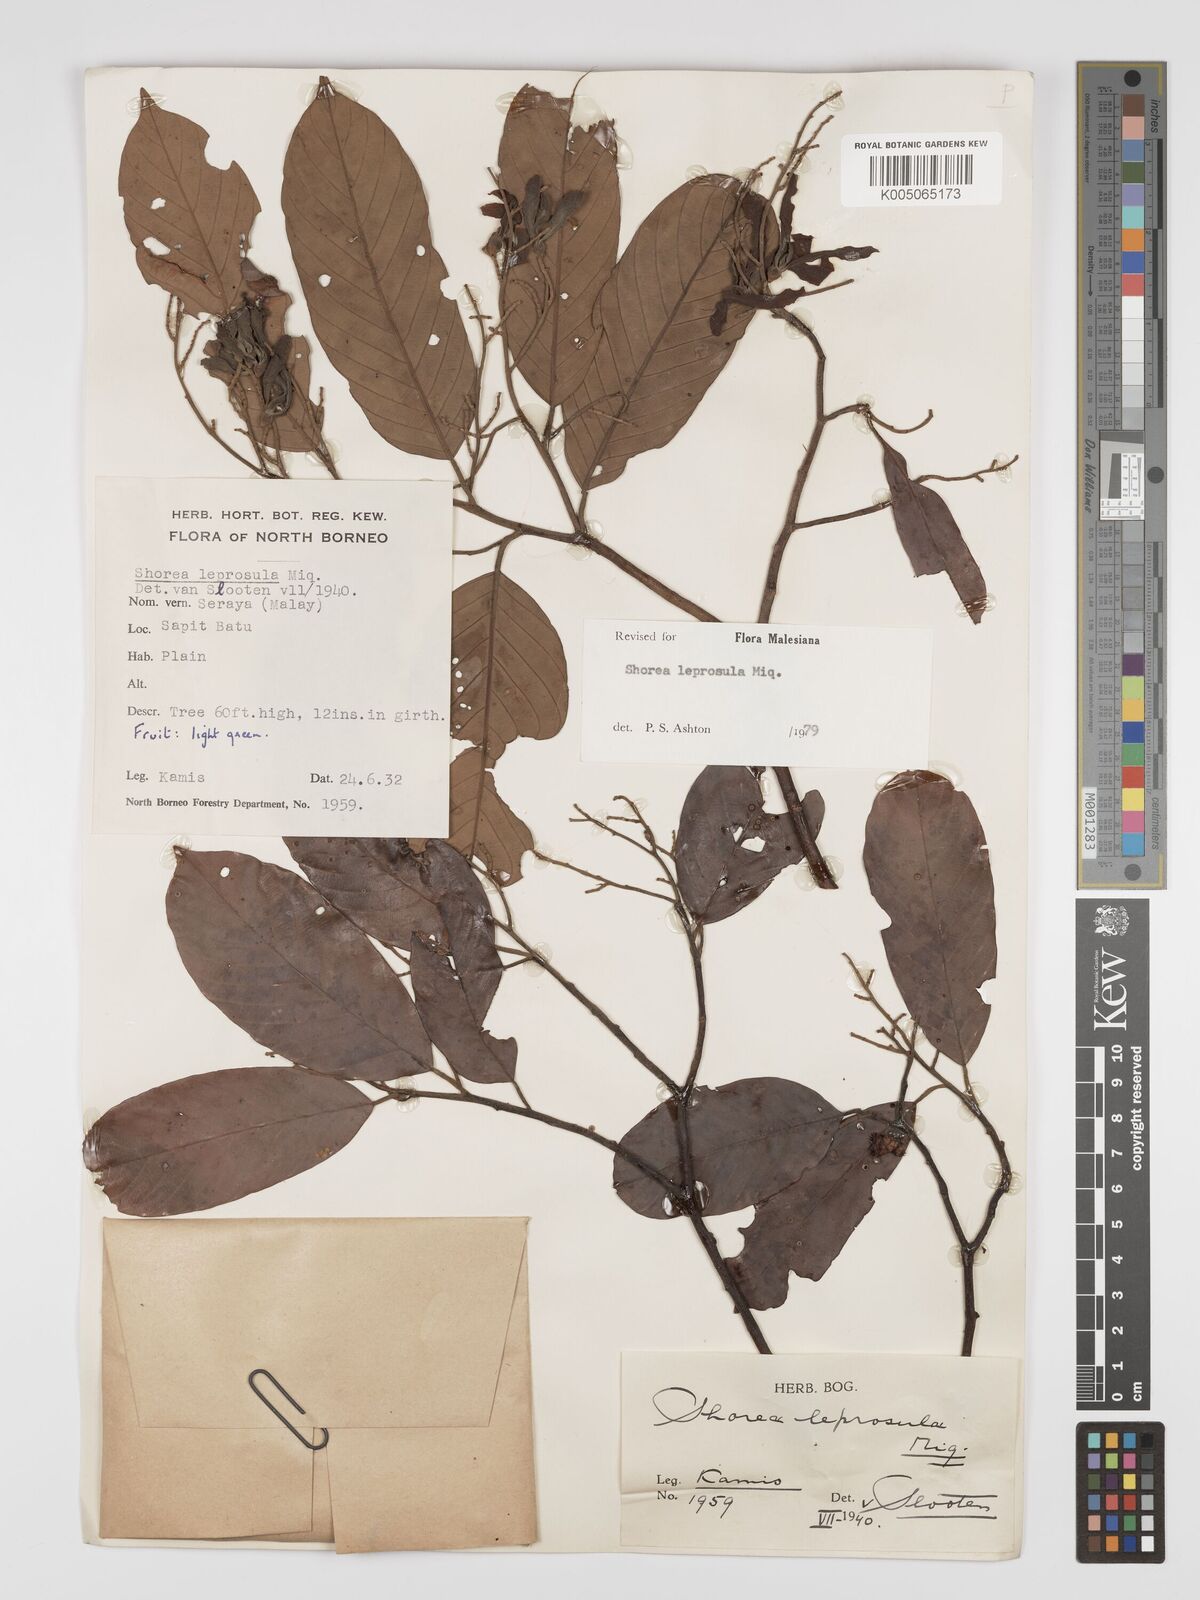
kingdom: Plantae
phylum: Tracheophyta
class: Magnoliopsida
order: Malvales
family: Dipterocarpaceae
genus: Shorea
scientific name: Shorea leprosula
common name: Light red meranti
